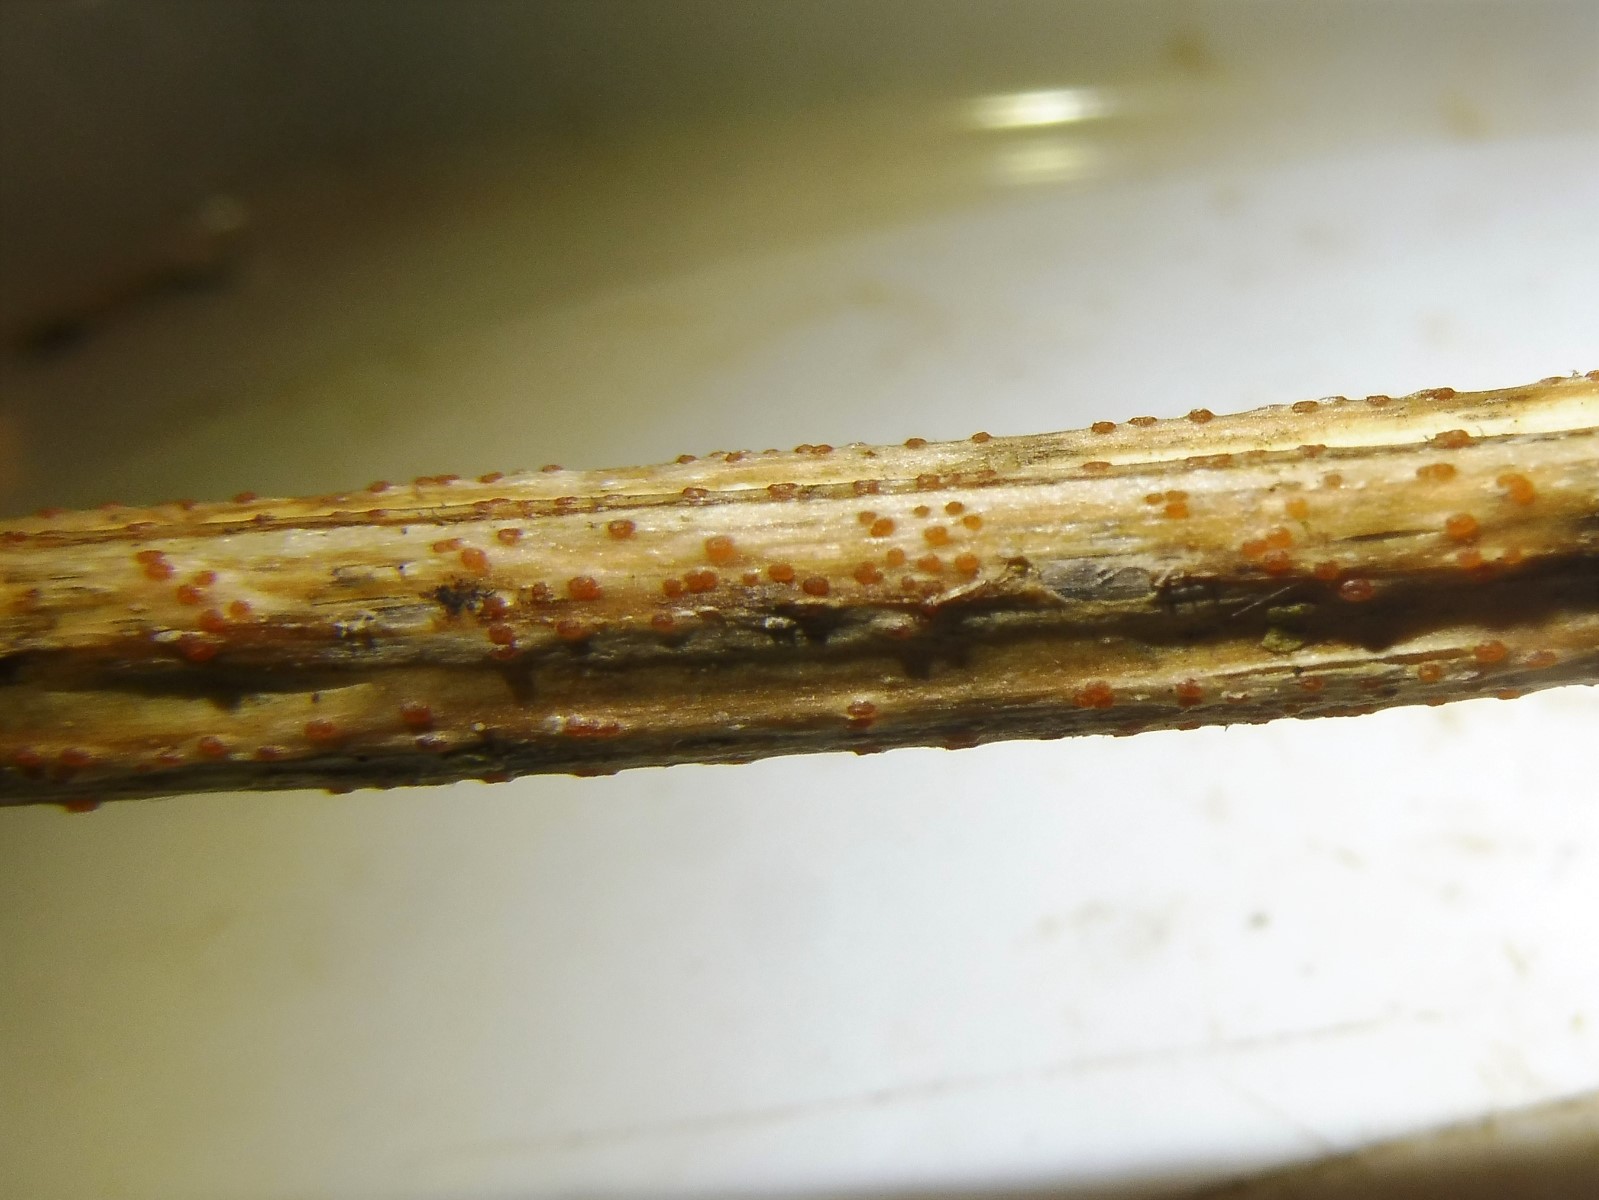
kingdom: Fungi
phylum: Ascomycota
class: Leotiomycetes
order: Helotiales
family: Calloriaceae
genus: Calloria
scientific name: Calloria urticae
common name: nælde-orangeskive
